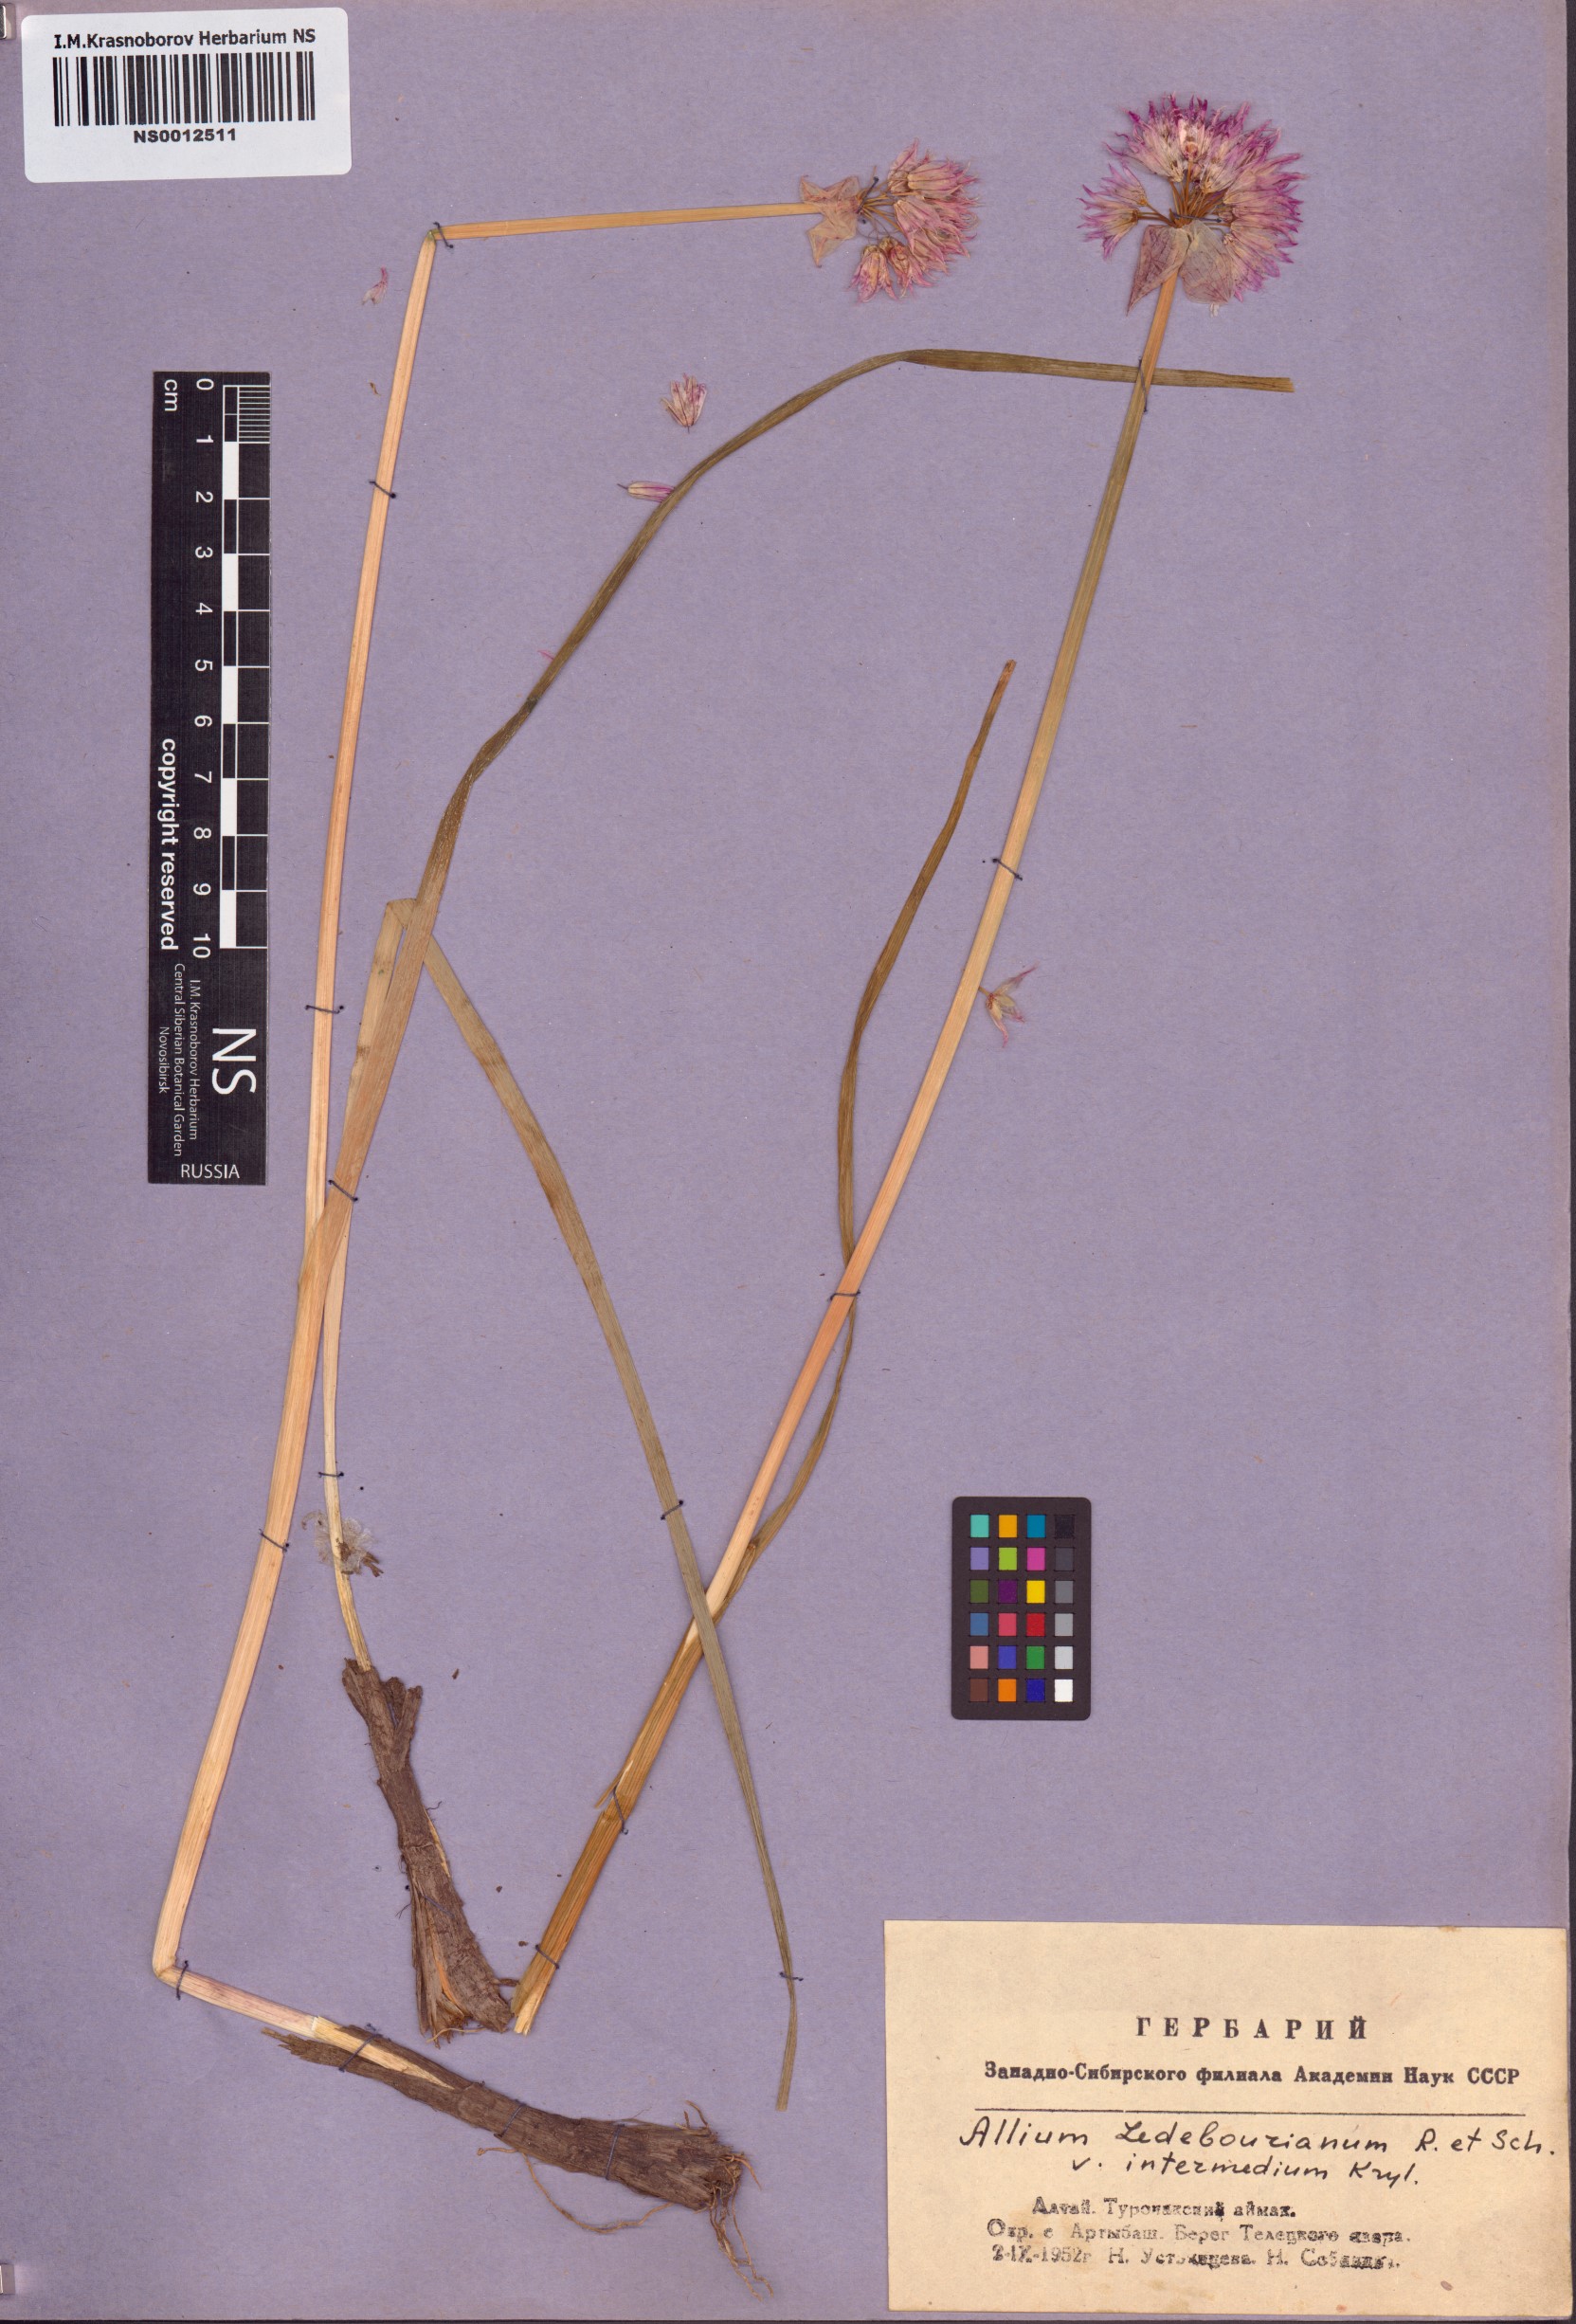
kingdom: Plantae
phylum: Tracheophyta
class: Liliopsida
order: Asparagales
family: Amaryllidaceae
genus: Allium
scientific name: Allium ledebourianum
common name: Ledebour chive
